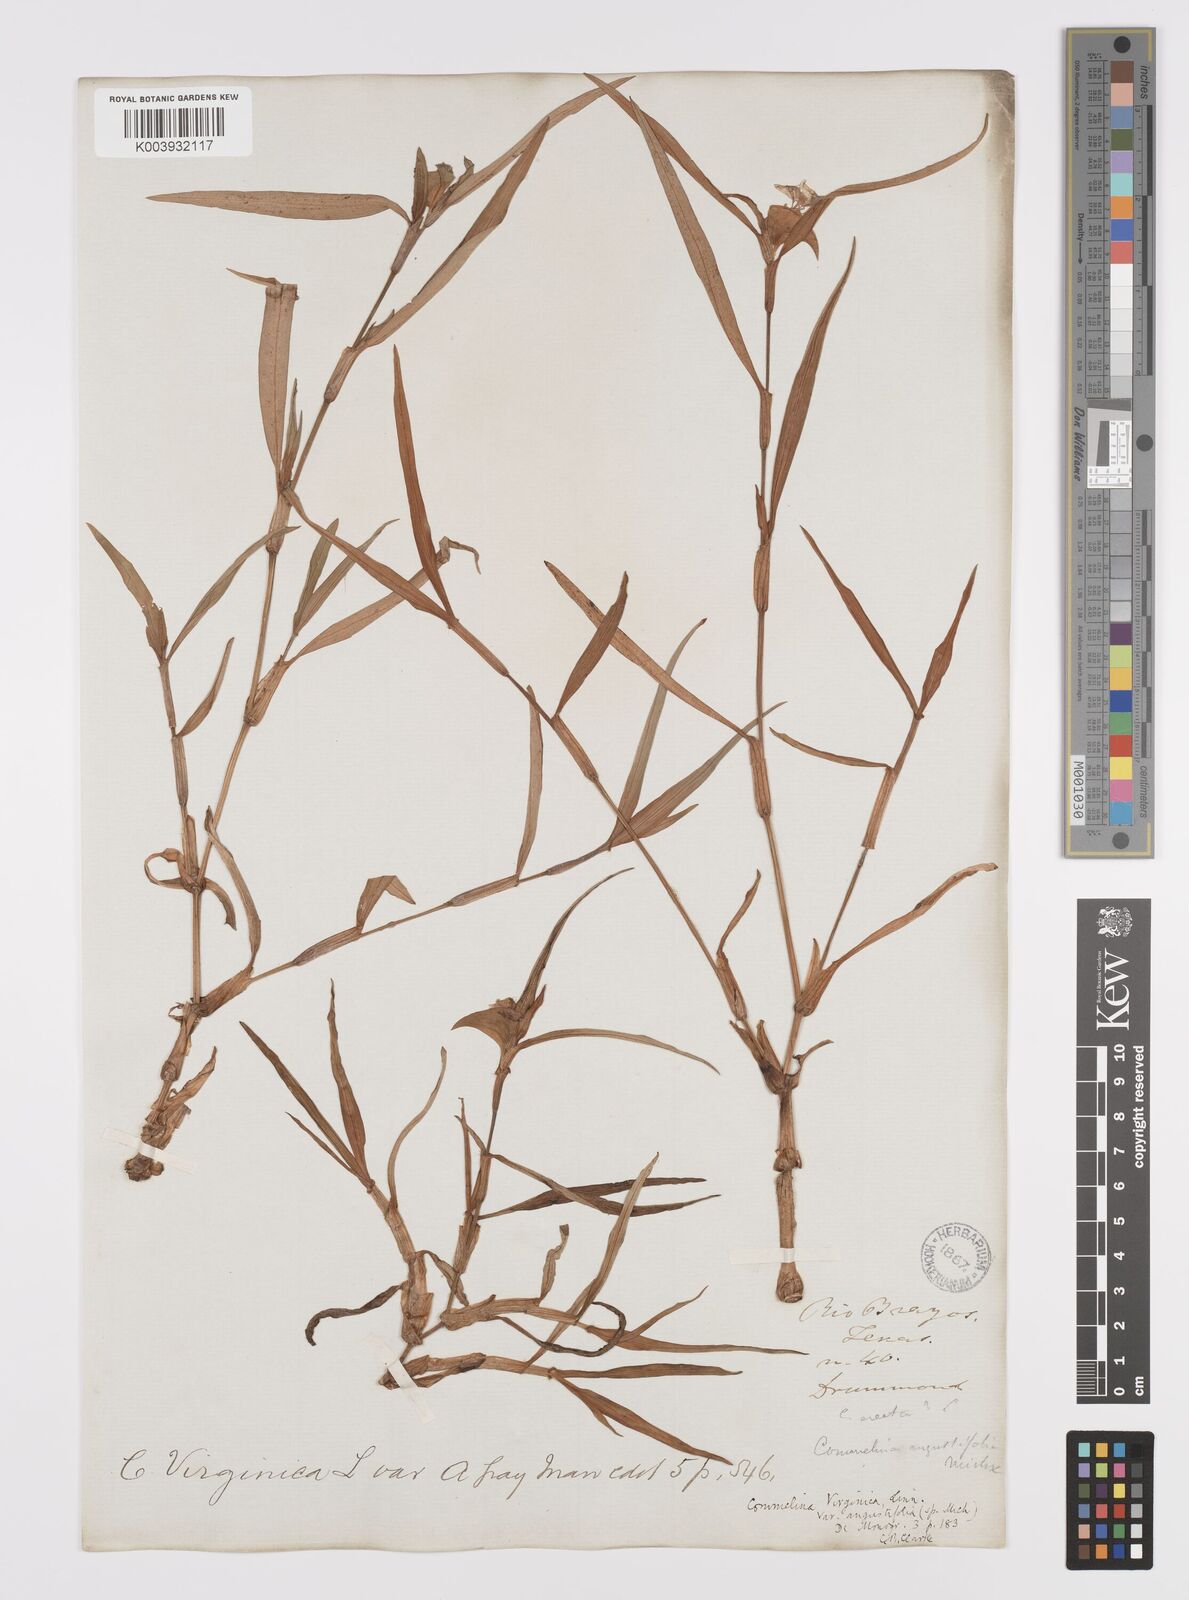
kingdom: Plantae
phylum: Tracheophyta
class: Liliopsida
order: Commelinales
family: Commelinaceae
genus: Commelina
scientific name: Commelina erecta
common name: Blousel blommetjie
